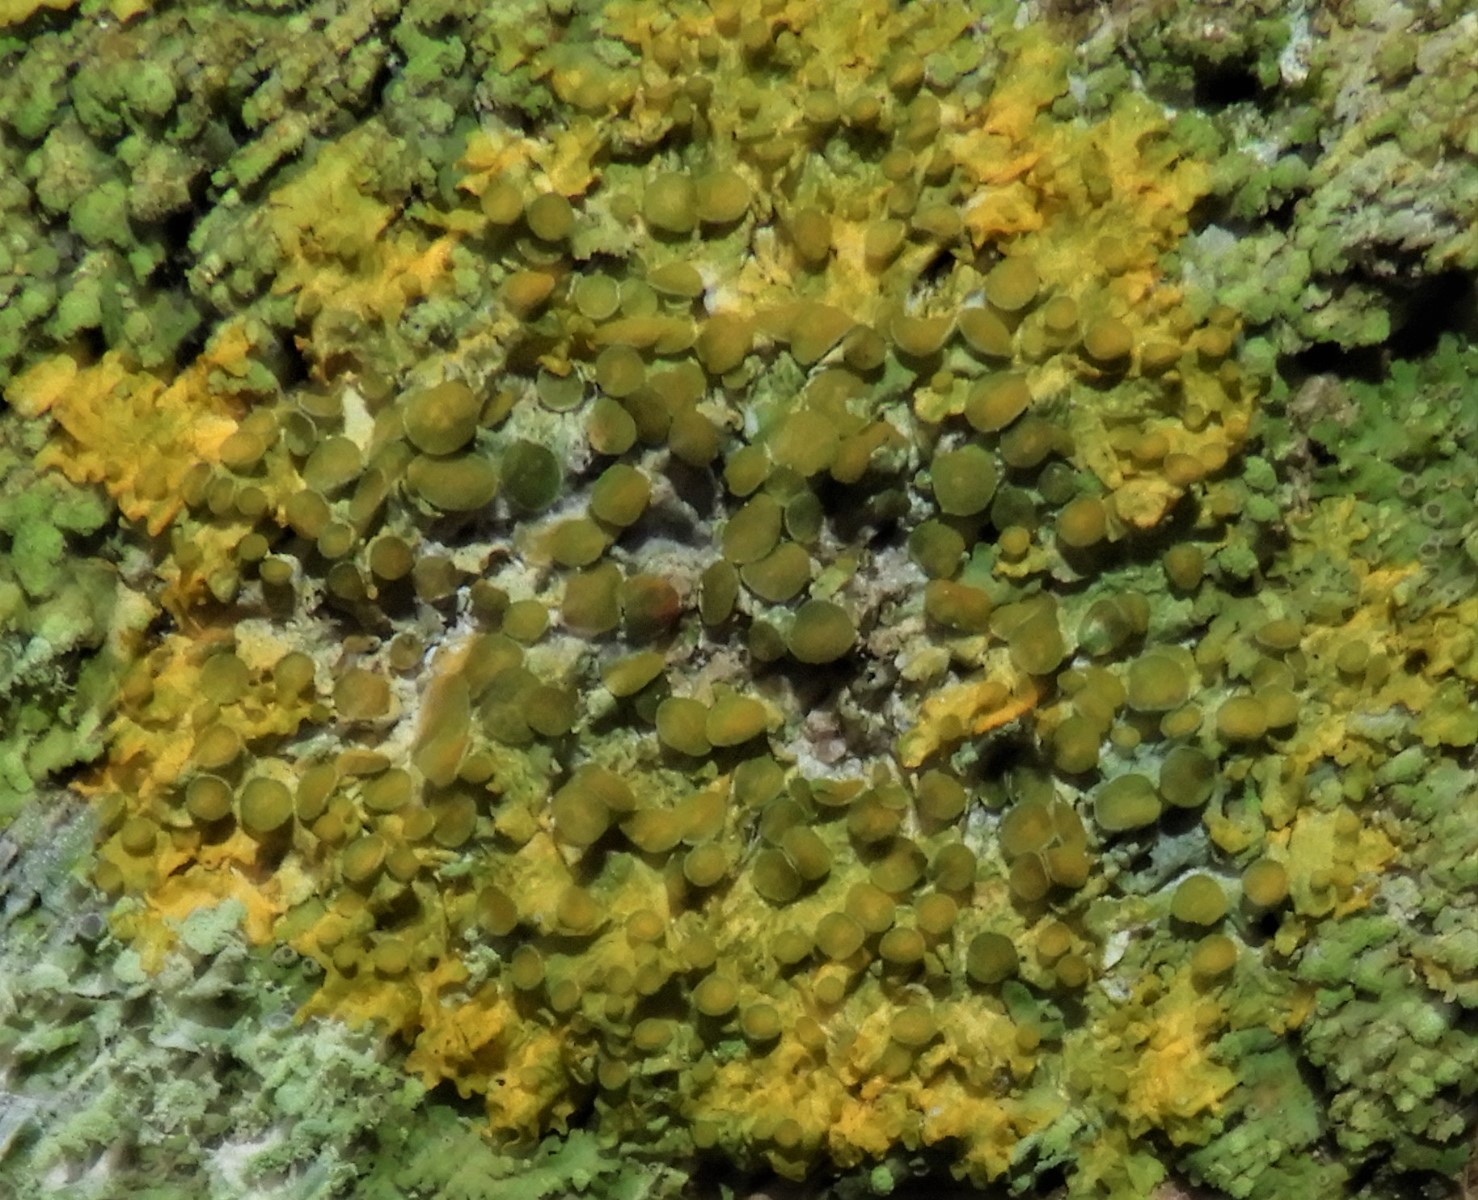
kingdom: Fungi
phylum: Ascomycota
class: Lecanoromycetes
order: Teloschistales
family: Teloschistaceae
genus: Xanthoria
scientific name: Xanthoria parietina
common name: almindelig væggelav
